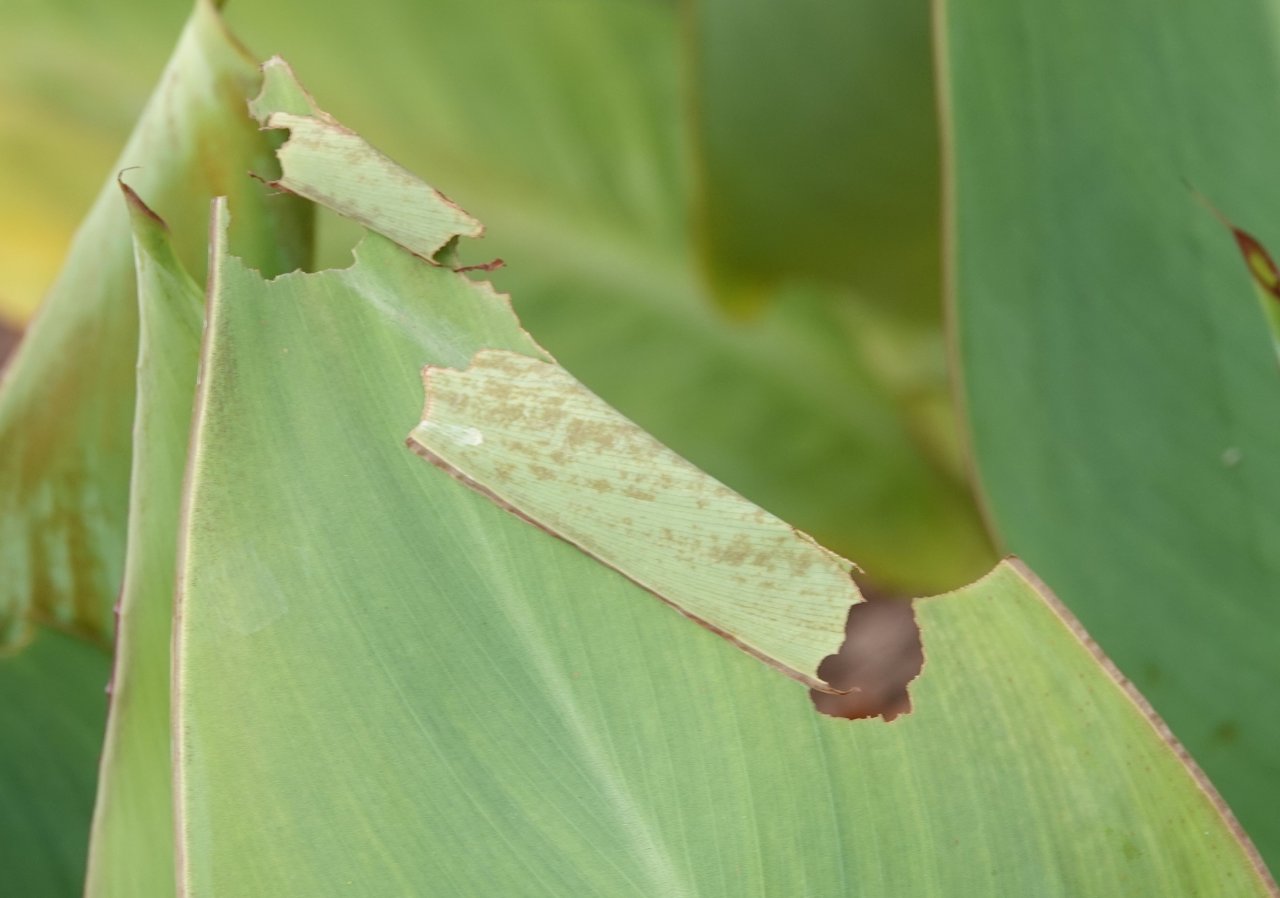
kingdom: Animalia
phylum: Arthropoda
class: Insecta
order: Lepidoptera
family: Hesperiidae
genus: Calpodes
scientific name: Calpodes ethlius
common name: Brazilian Skipper
